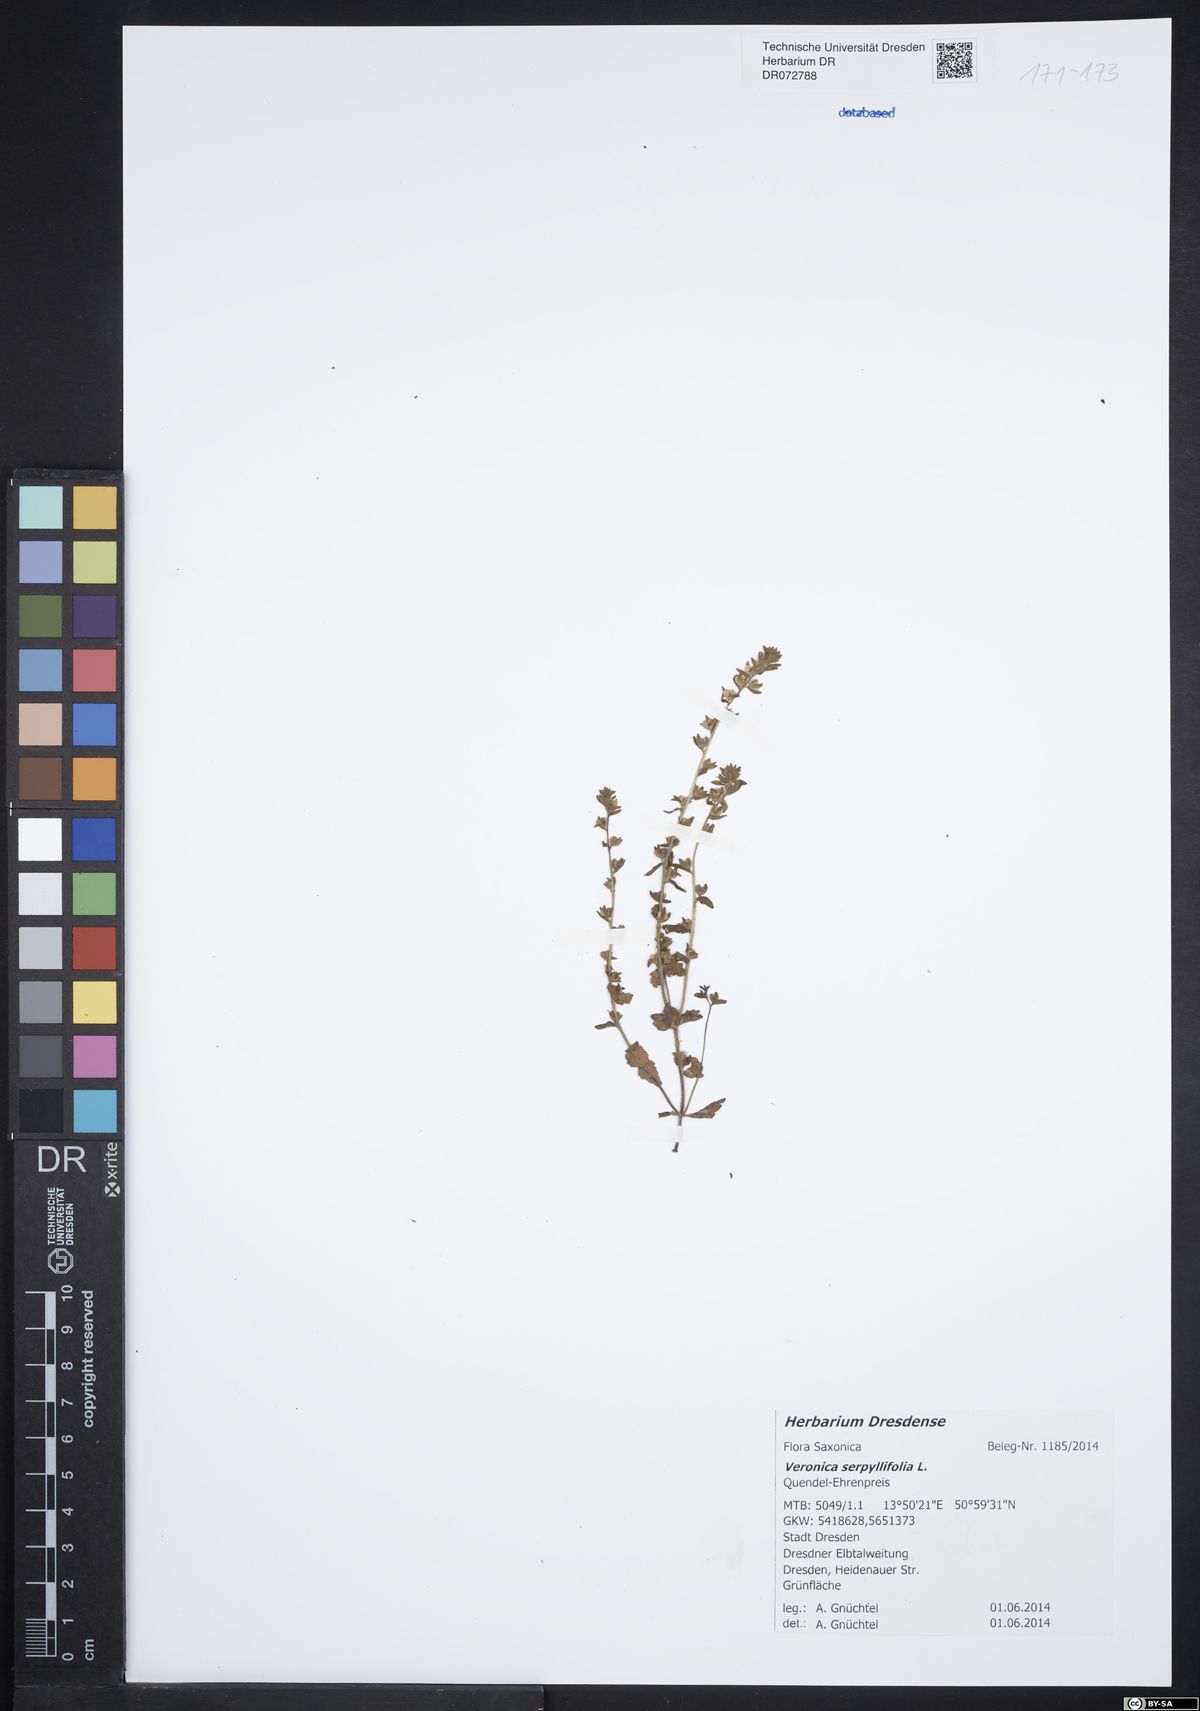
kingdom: Plantae
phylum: Tracheophyta
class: Magnoliopsida
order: Lamiales
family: Plantaginaceae
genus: Veronica
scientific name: Veronica serpyllifolia
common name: Thyme-leaved speedwell
